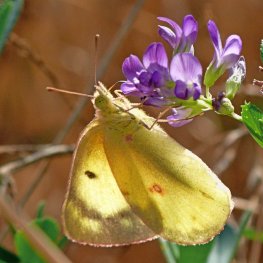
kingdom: Animalia
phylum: Arthropoda
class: Insecta
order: Lepidoptera
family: Pieridae
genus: Colias
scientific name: Colias philodice
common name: Clouded Sulphur
